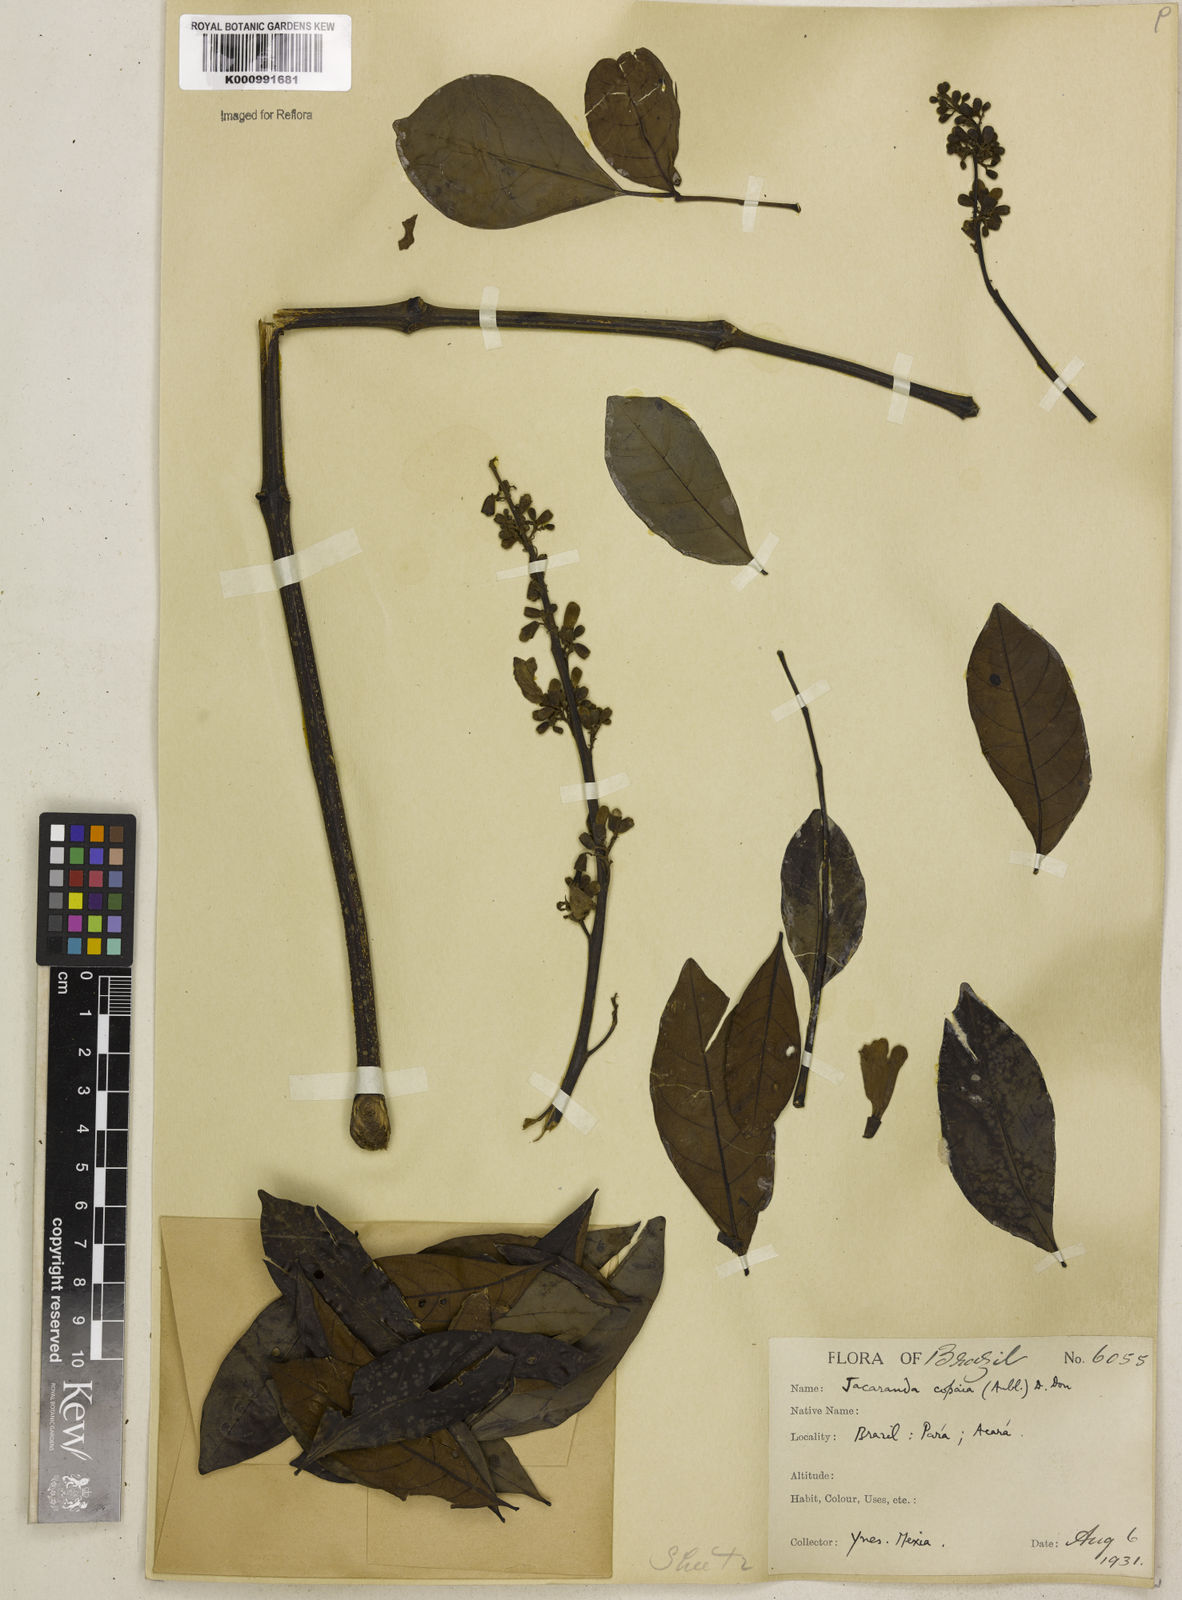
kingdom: Plantae
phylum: Tracheophyta
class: Magnoliopsida
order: Lamiales
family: Bignoniaceae
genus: Jacaranda
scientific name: Jacaranda
